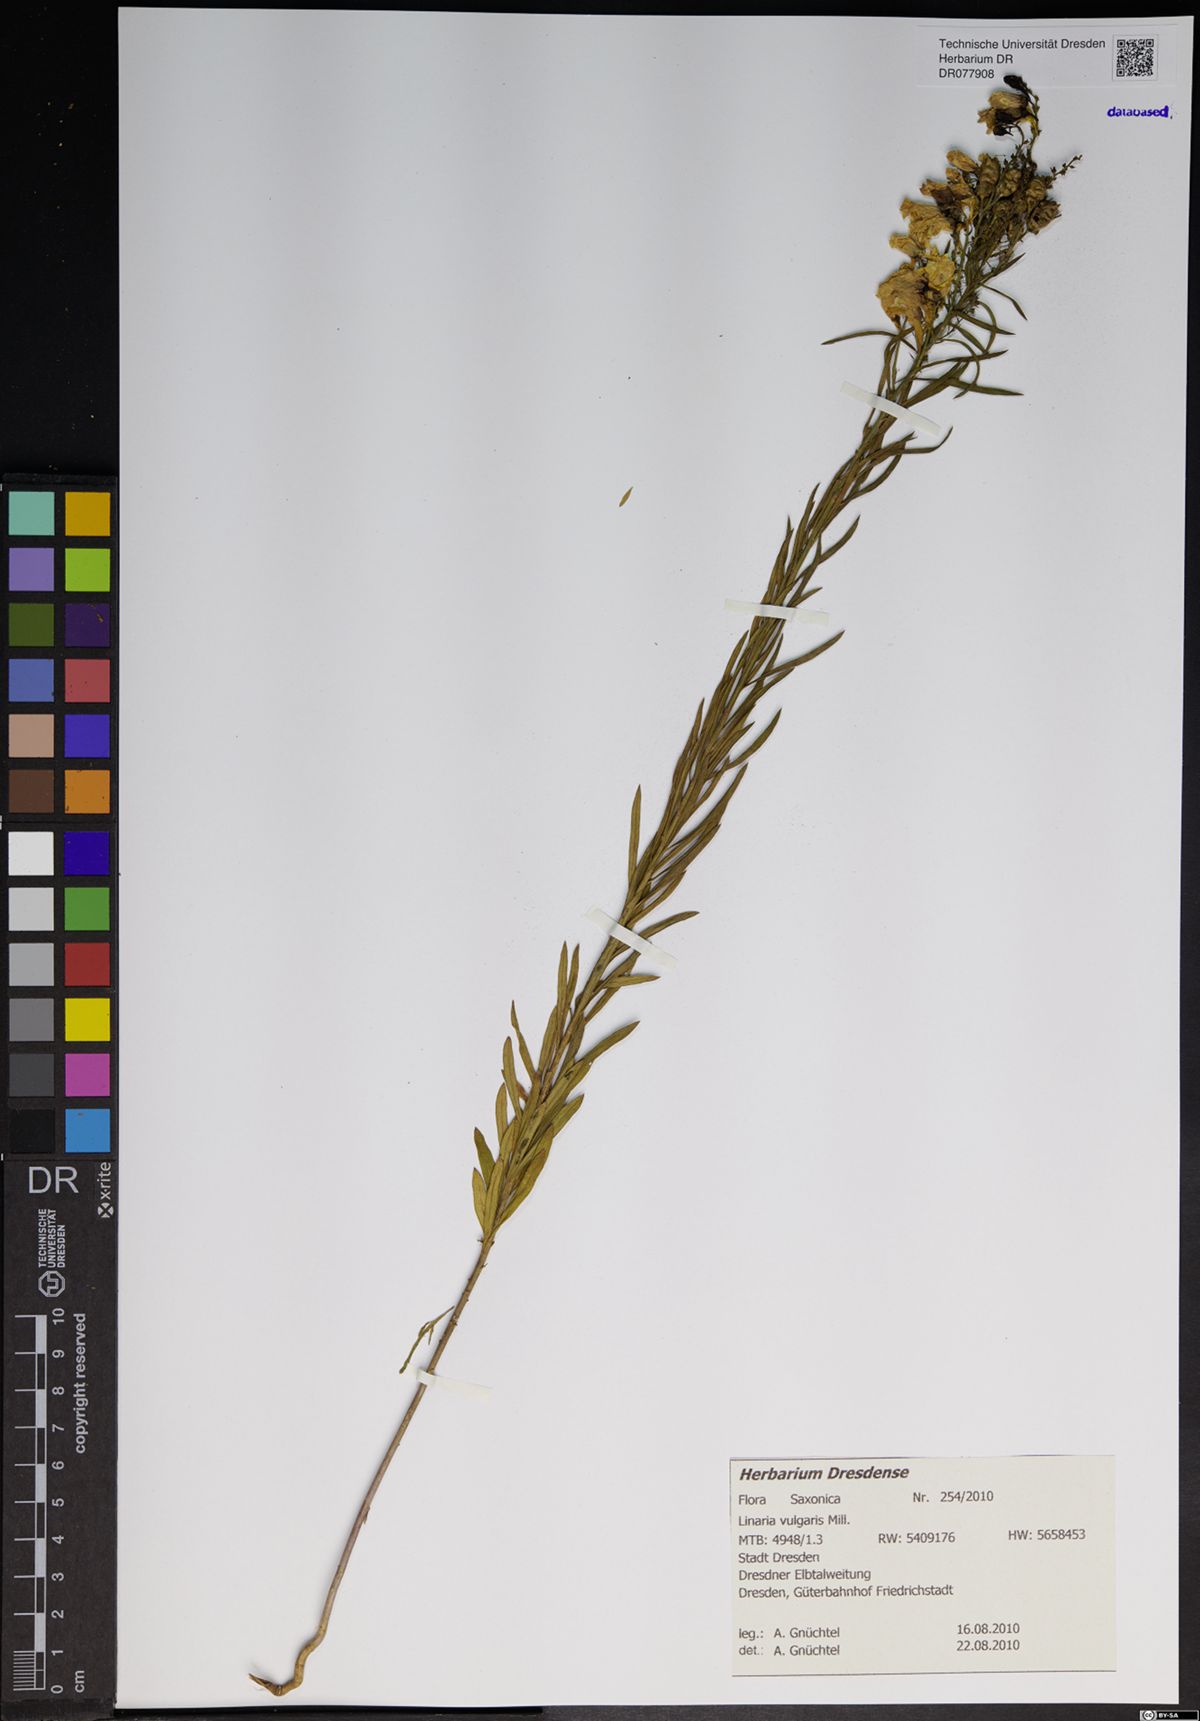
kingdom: Plantae
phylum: Tracheophyta
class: Magnoliopsida
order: Lamiales
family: Plantaginaceae
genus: Linaria
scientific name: Linaria vulgaris
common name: Butter and eggs
